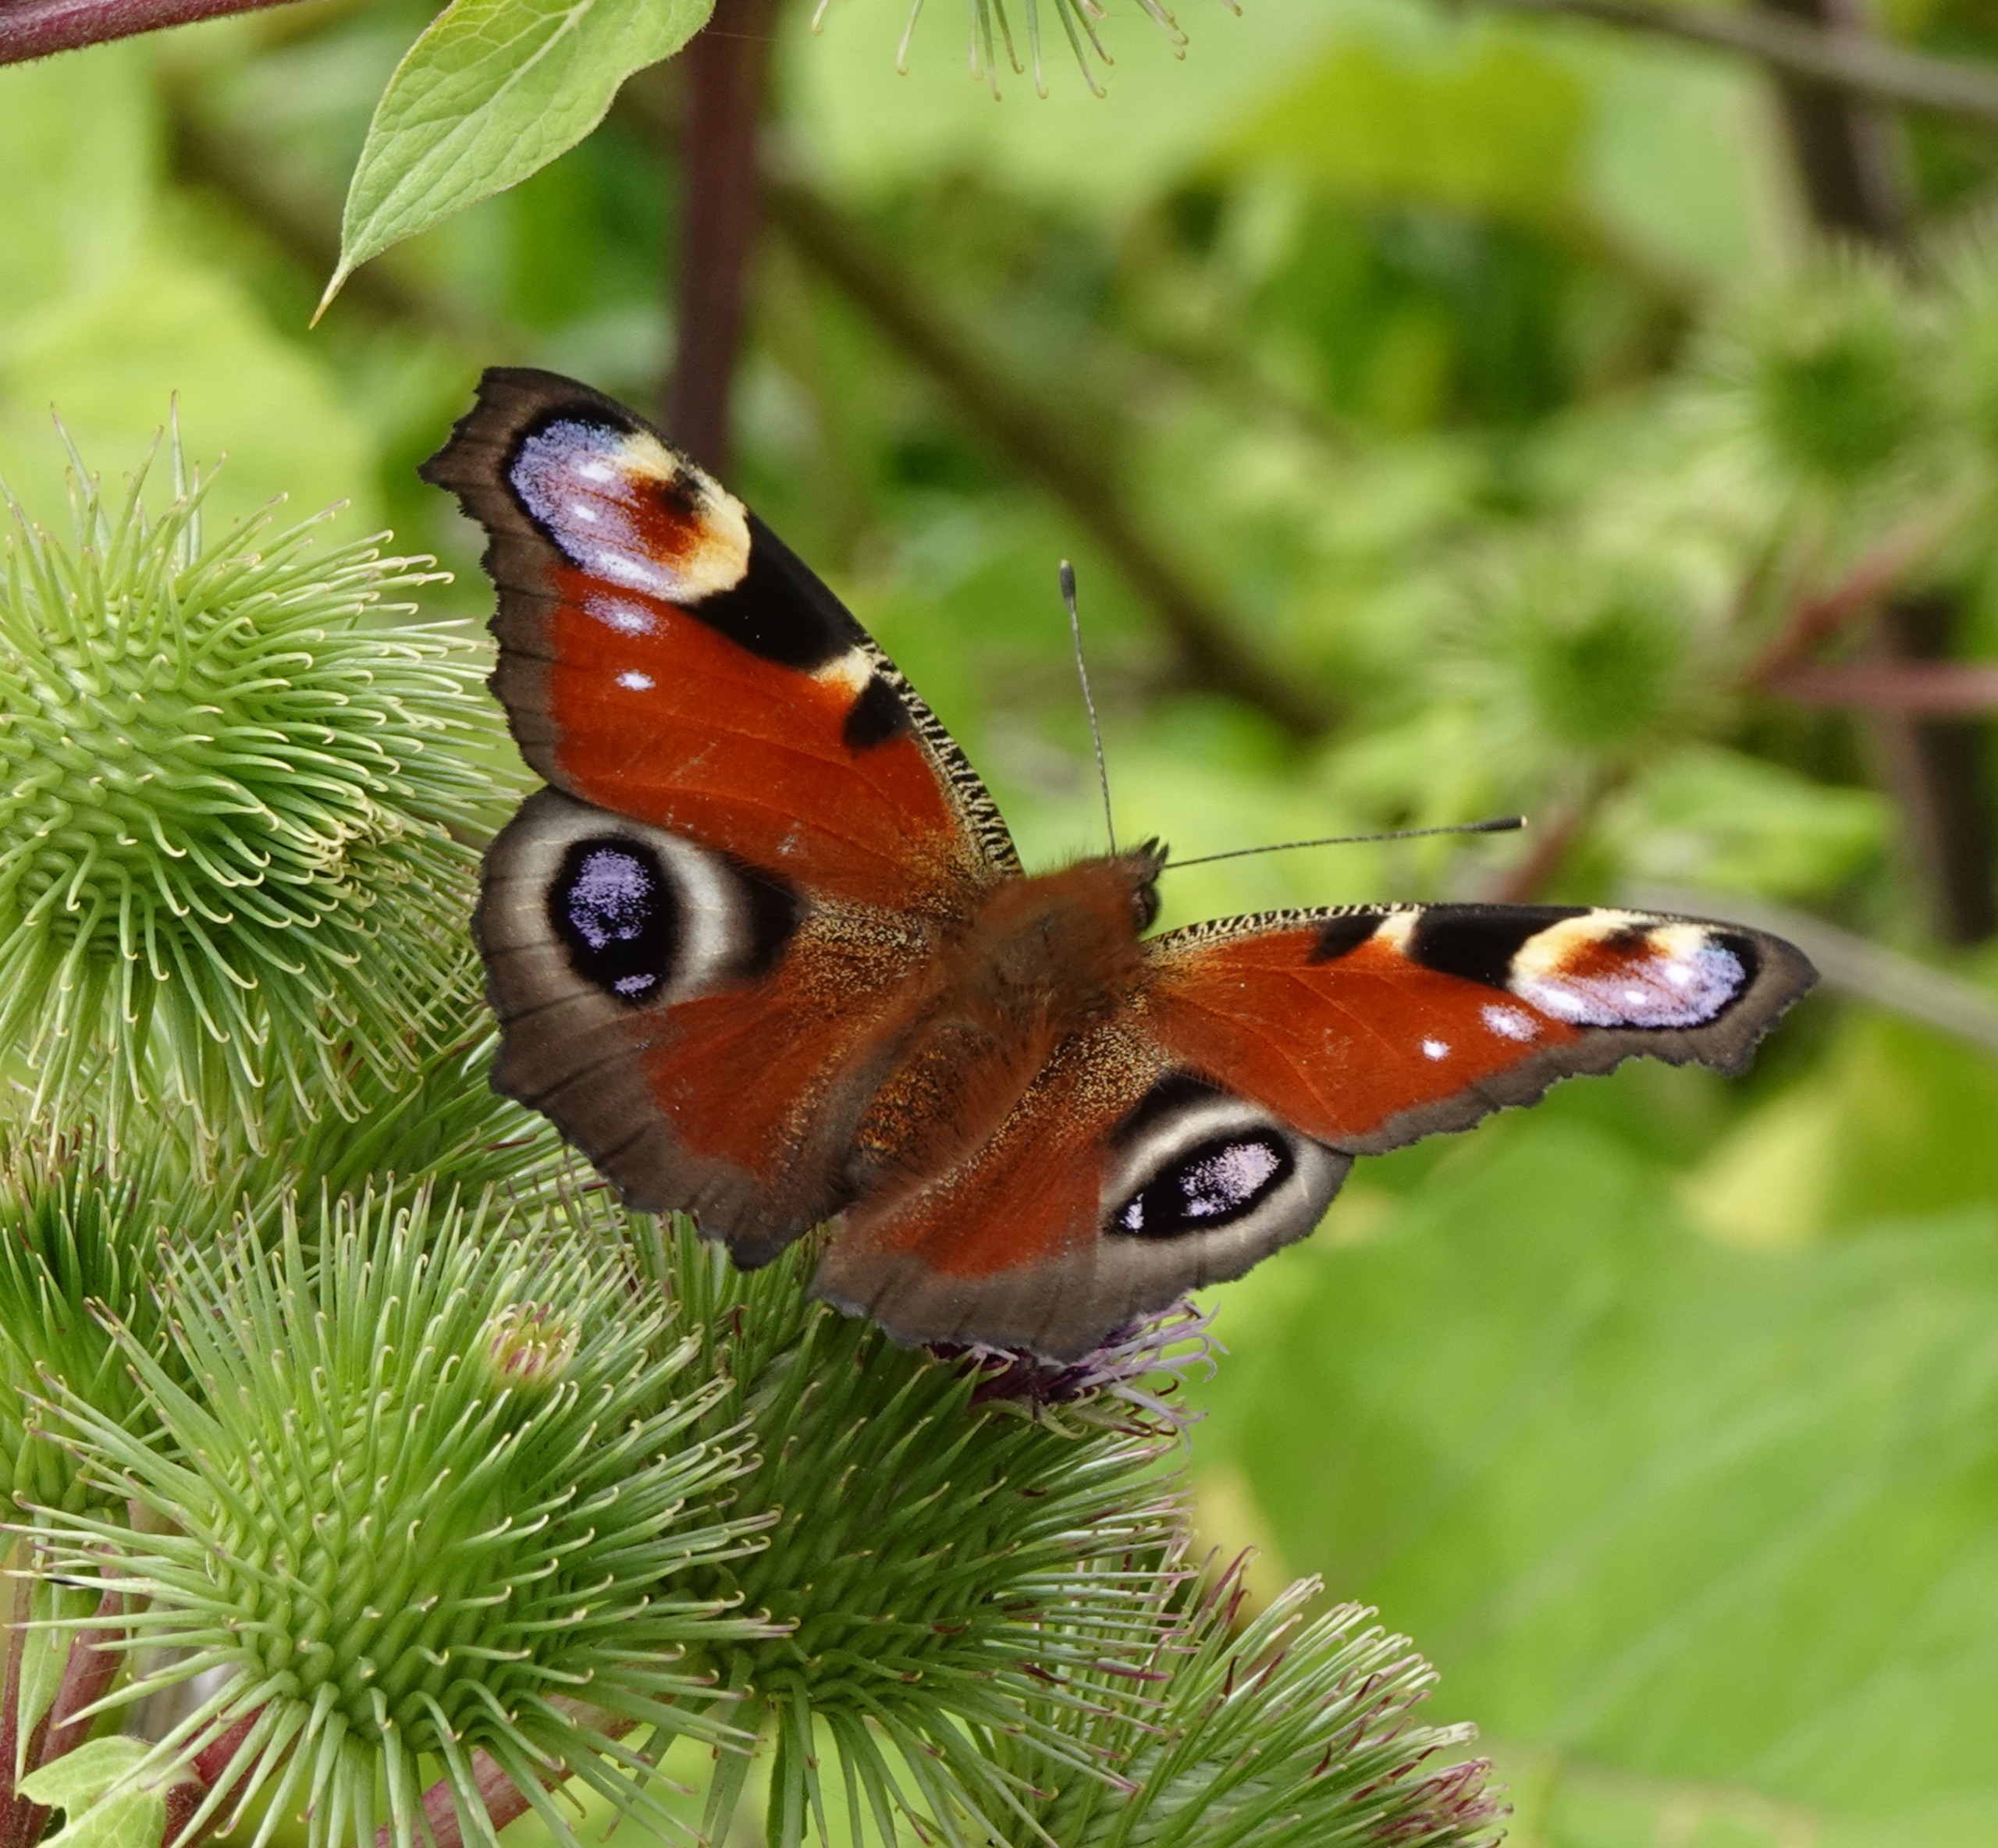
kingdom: Animalia
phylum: Arthropoda
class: Insecta
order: Lepidoptera
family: Nymphalidae
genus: Aglais
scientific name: Aglais io
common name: Dagpåfugleøje
